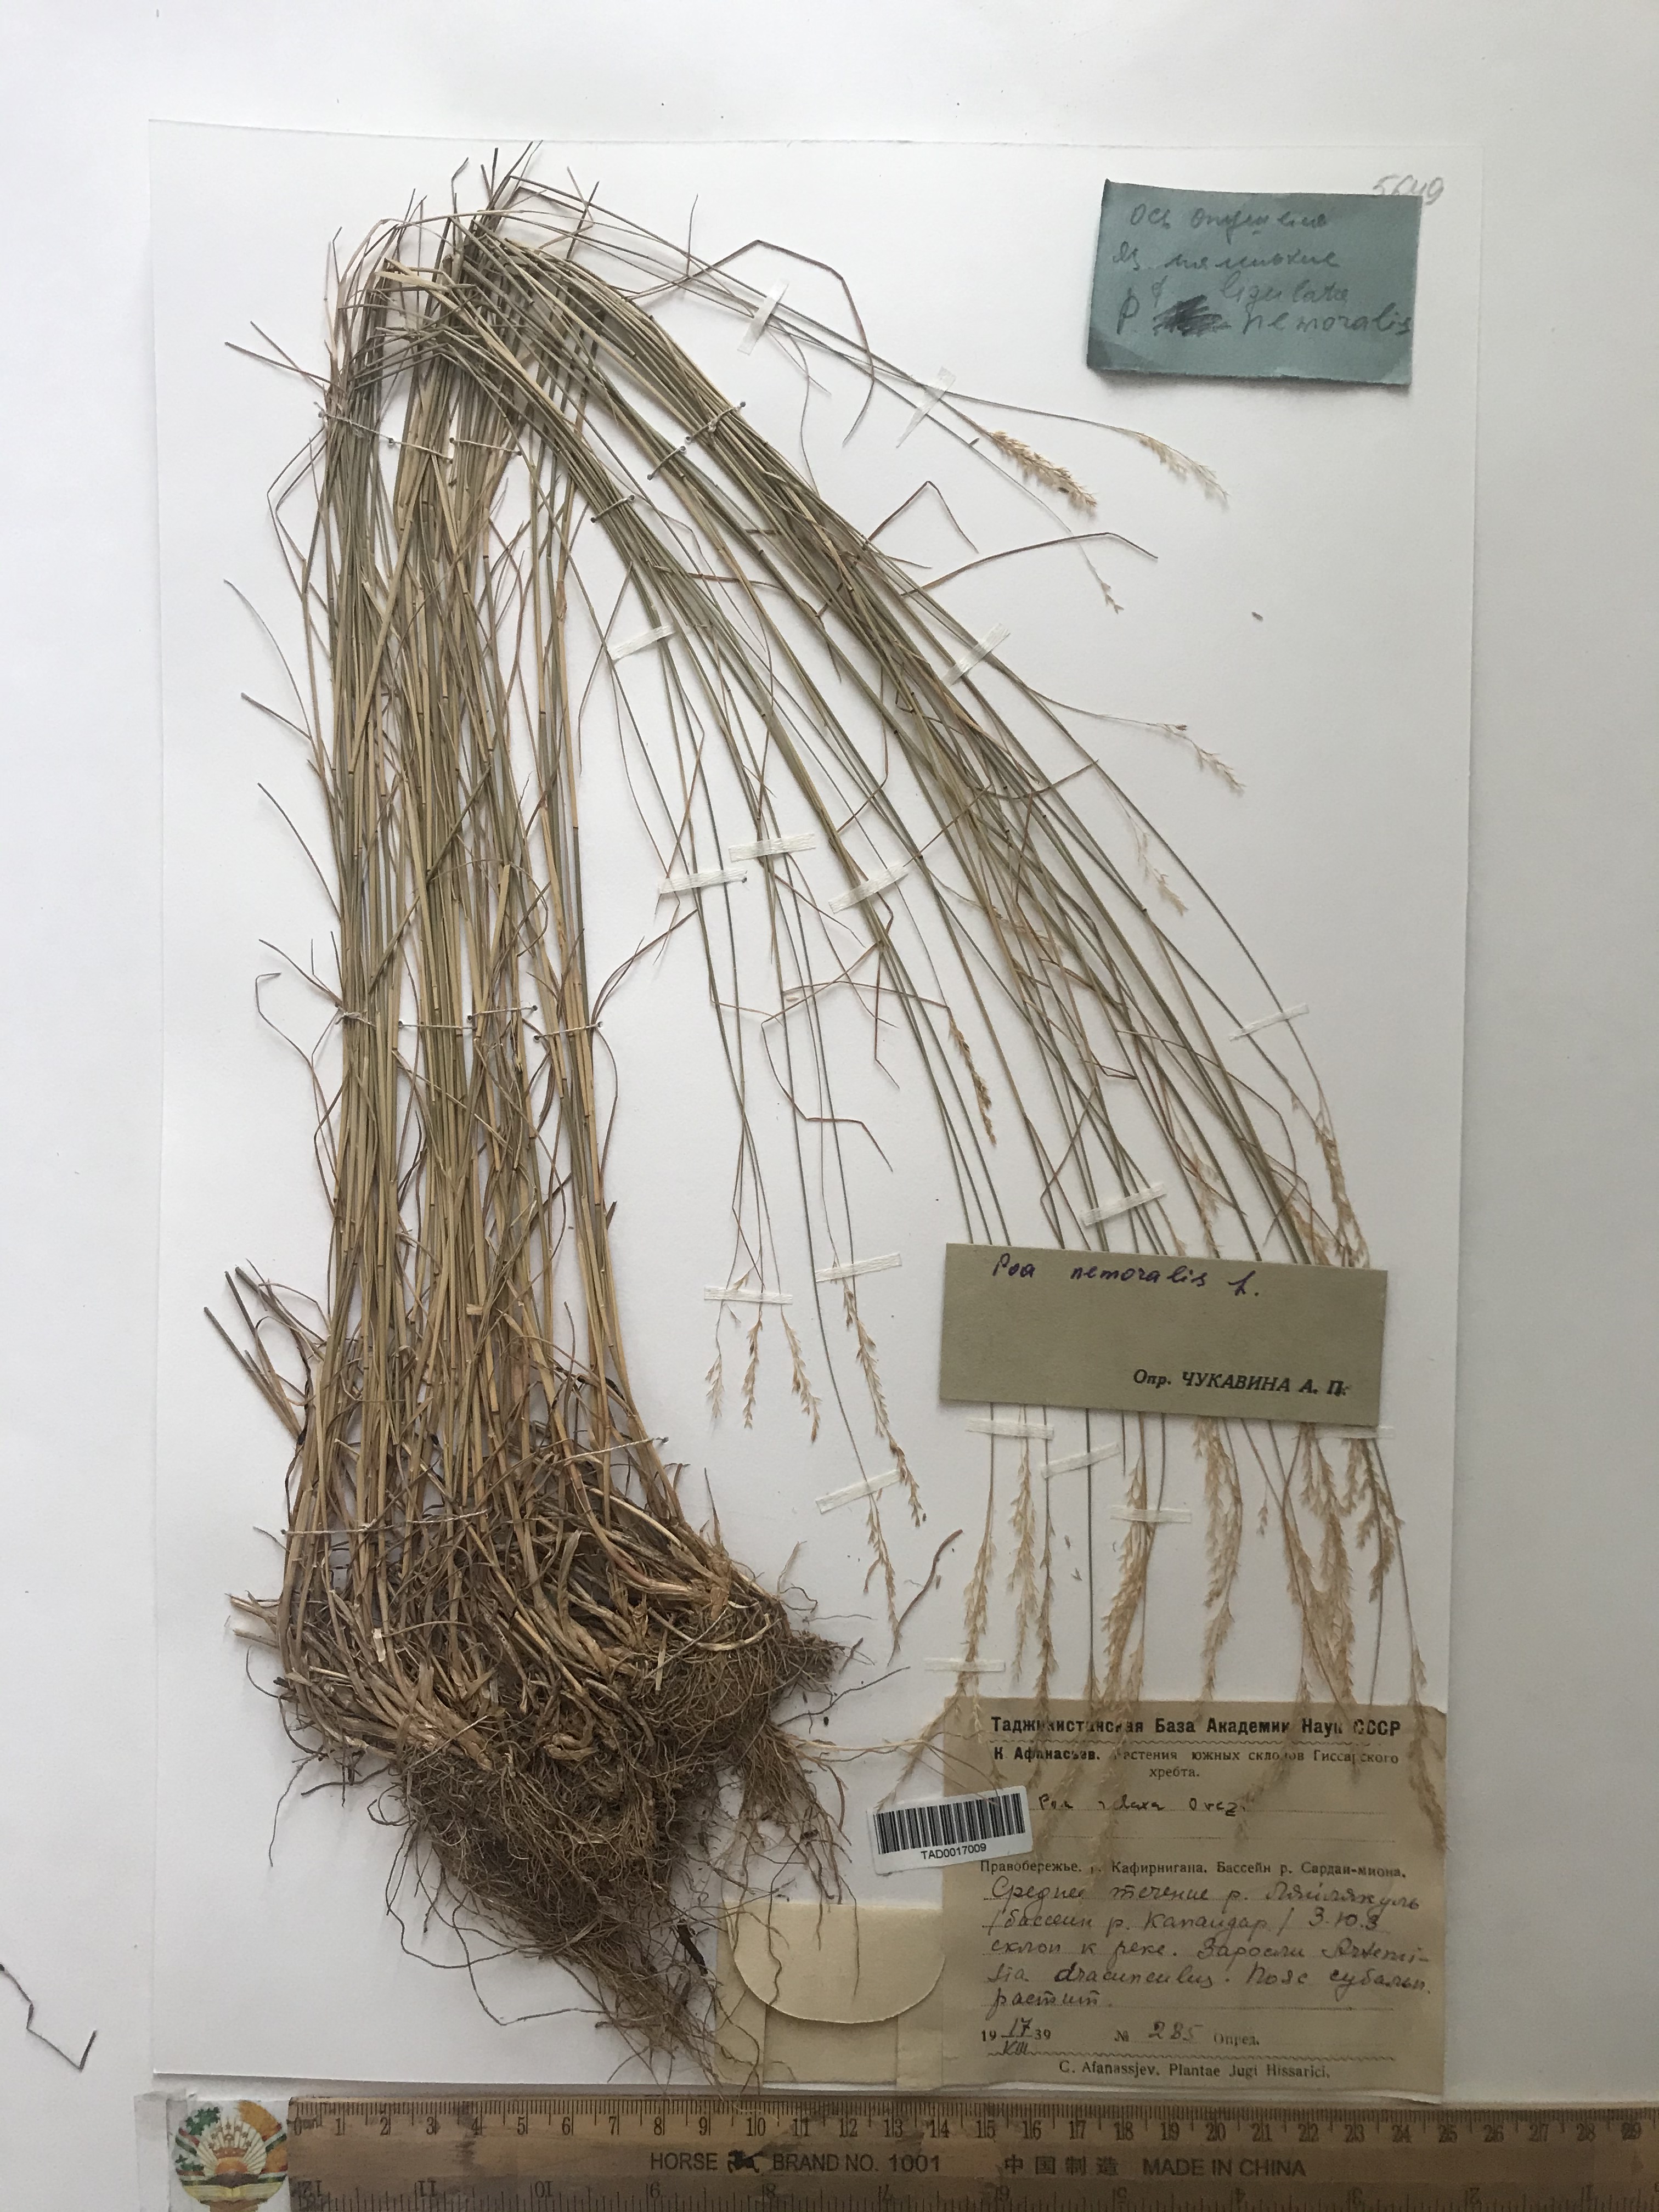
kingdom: Plantae
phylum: Tracheophyta
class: Liliopsida
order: Poales
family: Poaceae
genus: Poa
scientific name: Poa nemoralis
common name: Wood bluegrass
